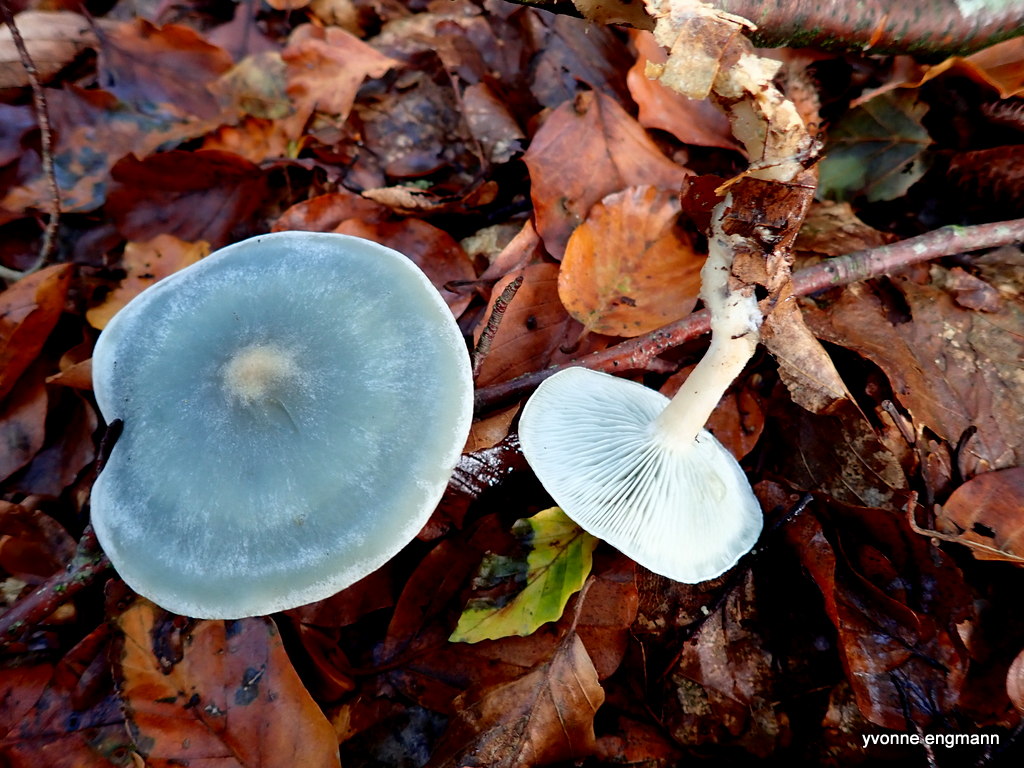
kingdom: Fungi
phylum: Basidiomycota
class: Agaricomycetes
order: Agaricales
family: Tricholomataceae
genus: Clitocybe
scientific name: Clitocybe odora
